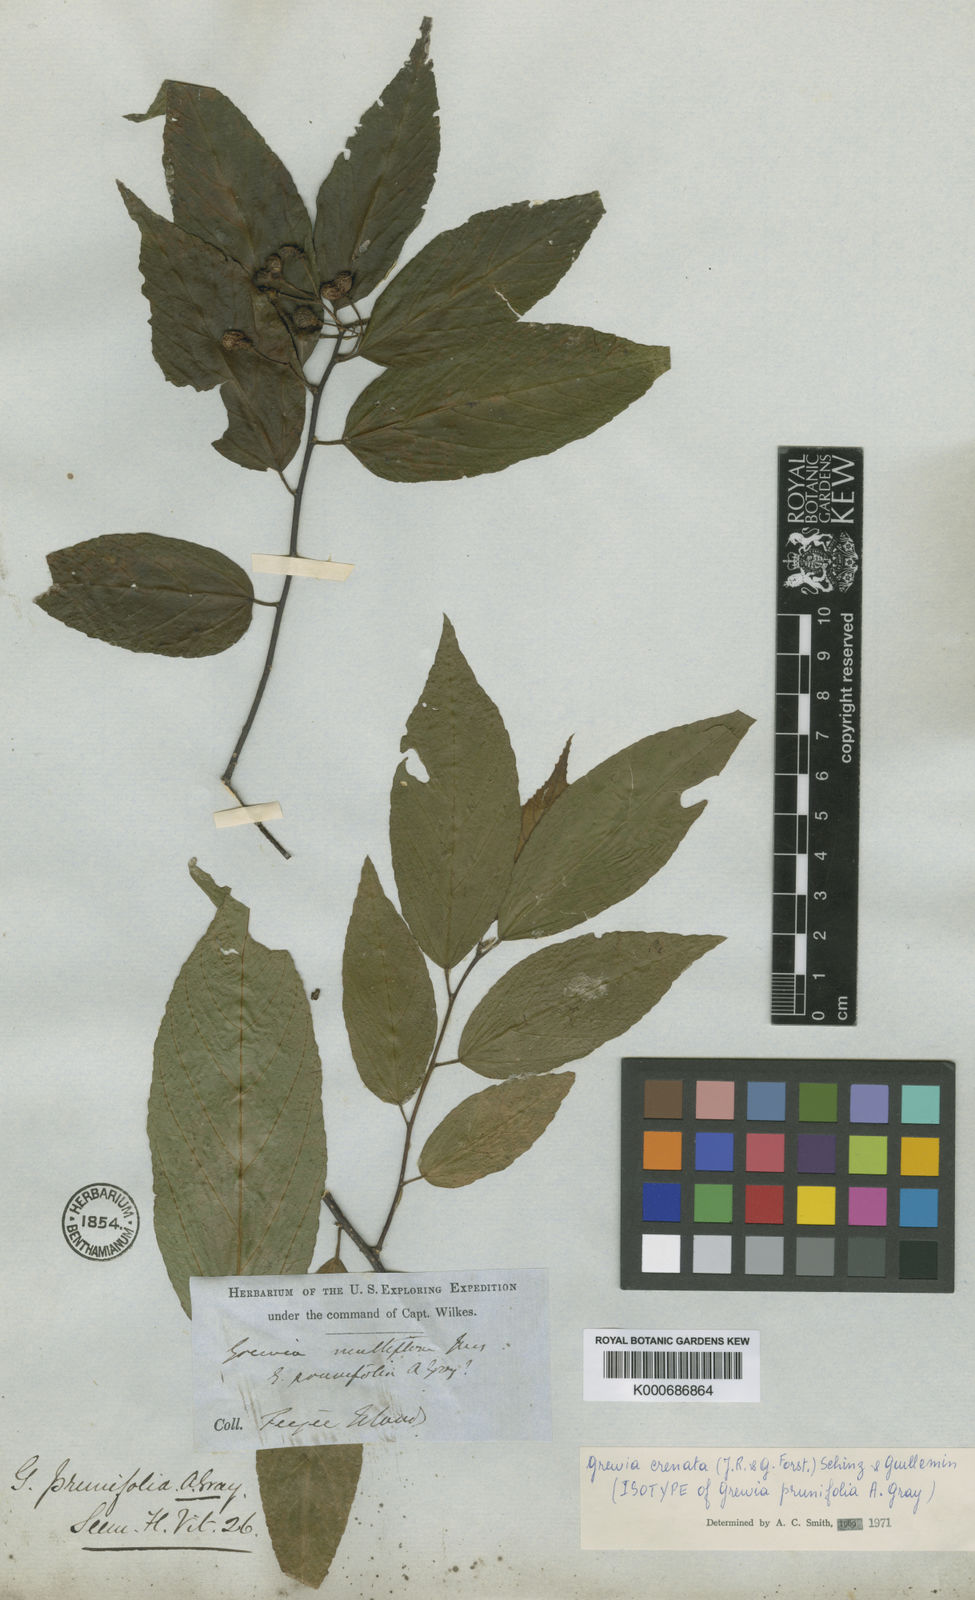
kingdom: Plantae
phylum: Tracheophyta
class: Magnoliopsida
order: Malvales
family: Malvaceae
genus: Grewia
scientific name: Grewia crenata
